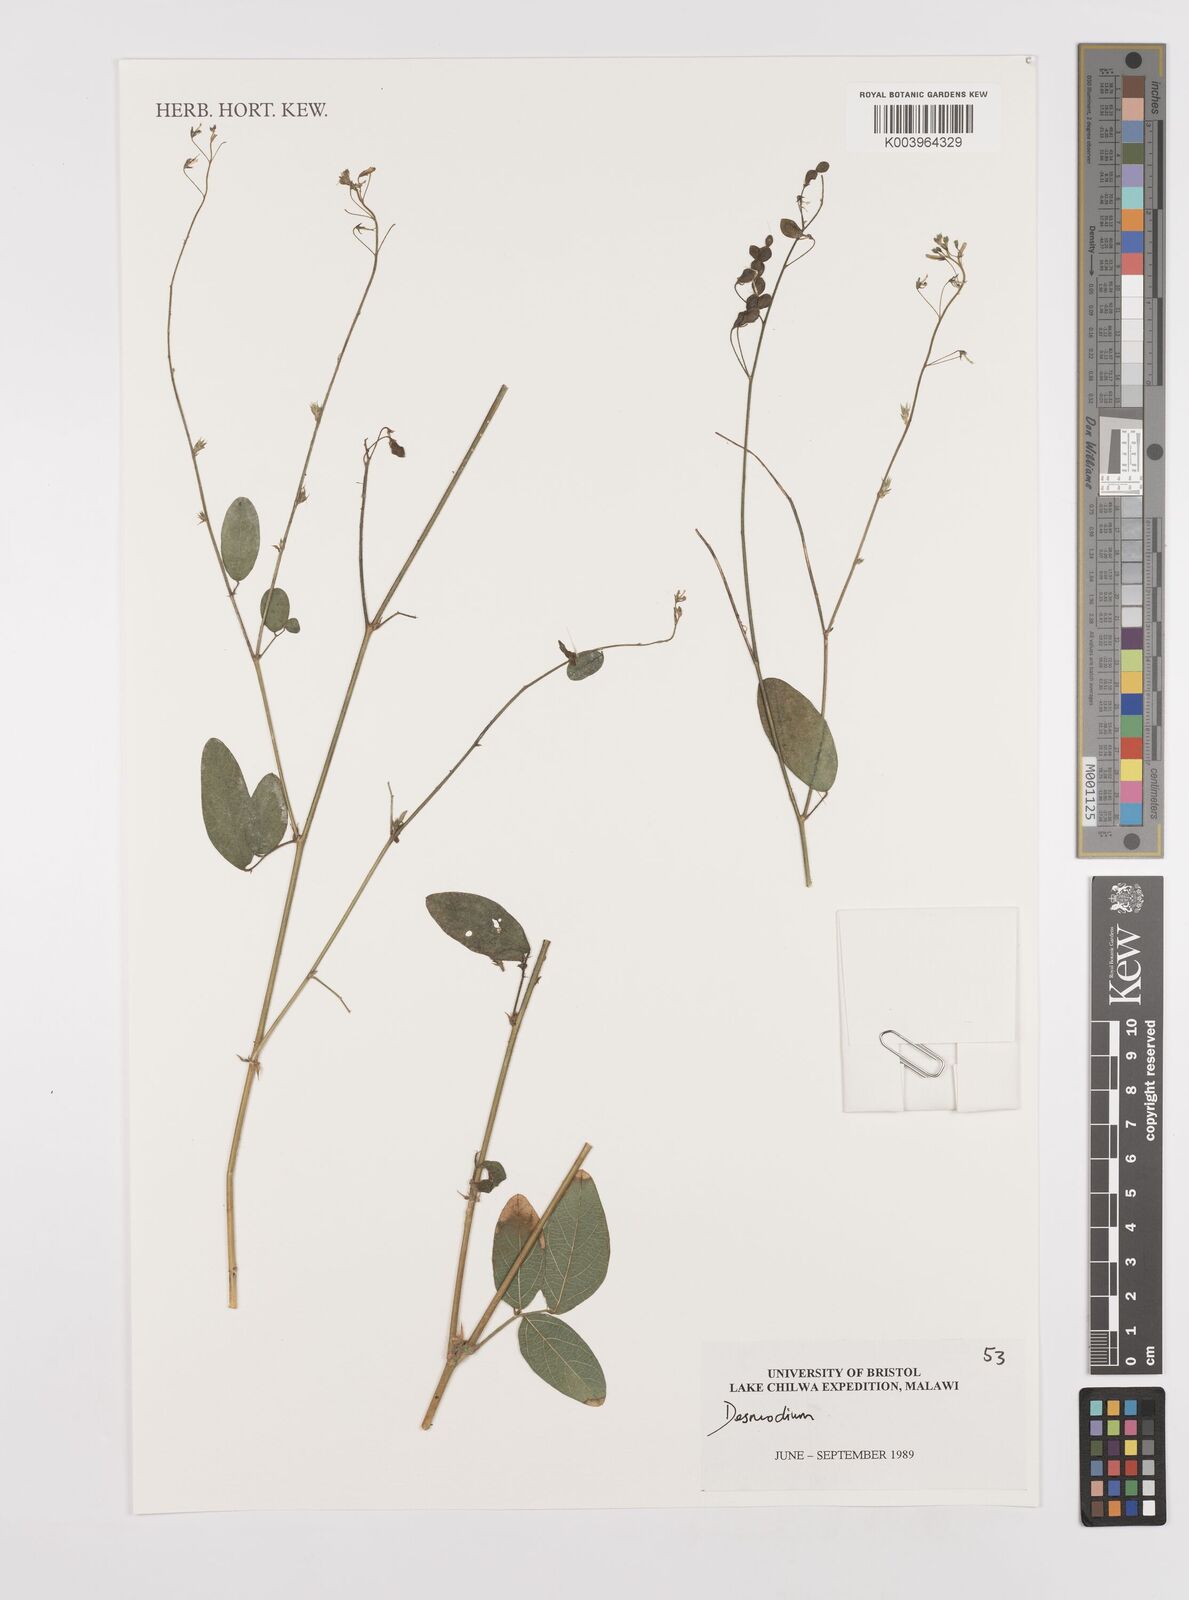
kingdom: Plantae
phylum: Tracheophyta
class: Magnoliopsida
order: Fabales
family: Fabaceae
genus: Desmodium
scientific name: Desmodium
